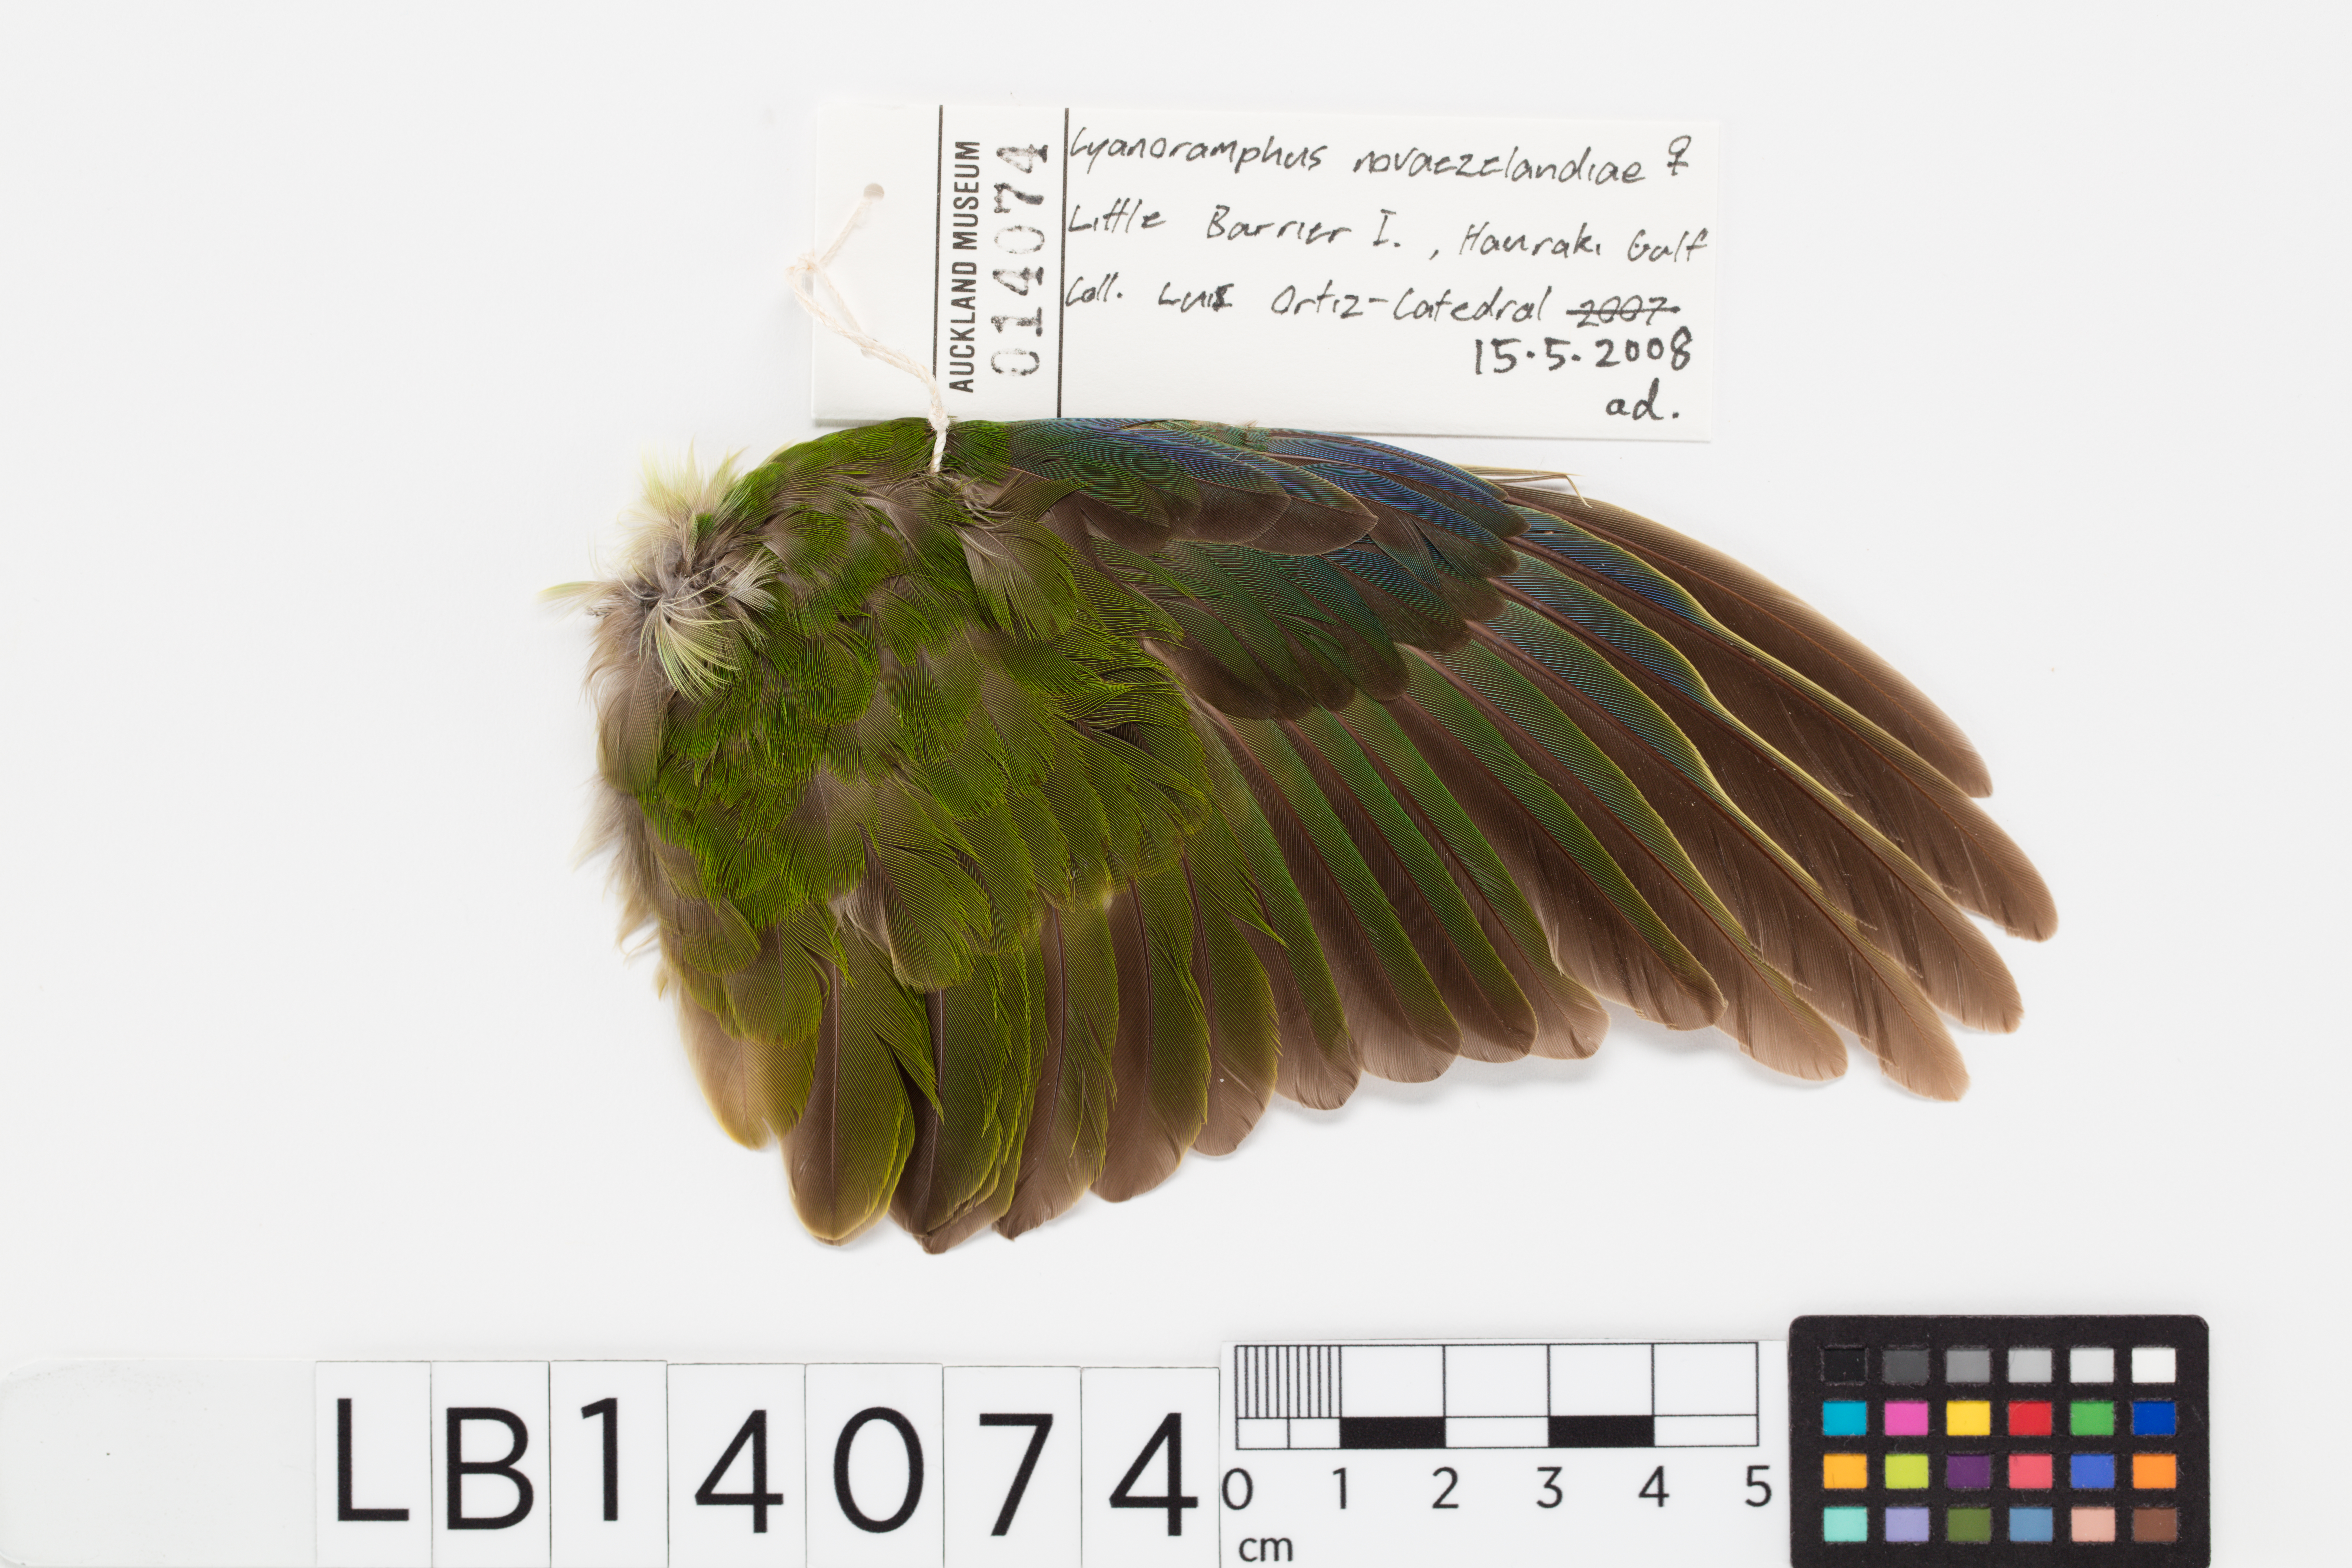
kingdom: Animalia
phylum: Chordata
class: Aves
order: Psittaciformes
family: Psittacidae
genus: Cyanoramphus
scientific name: Cyanoramphus novaezelandiae
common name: Red-fronted parakeet
